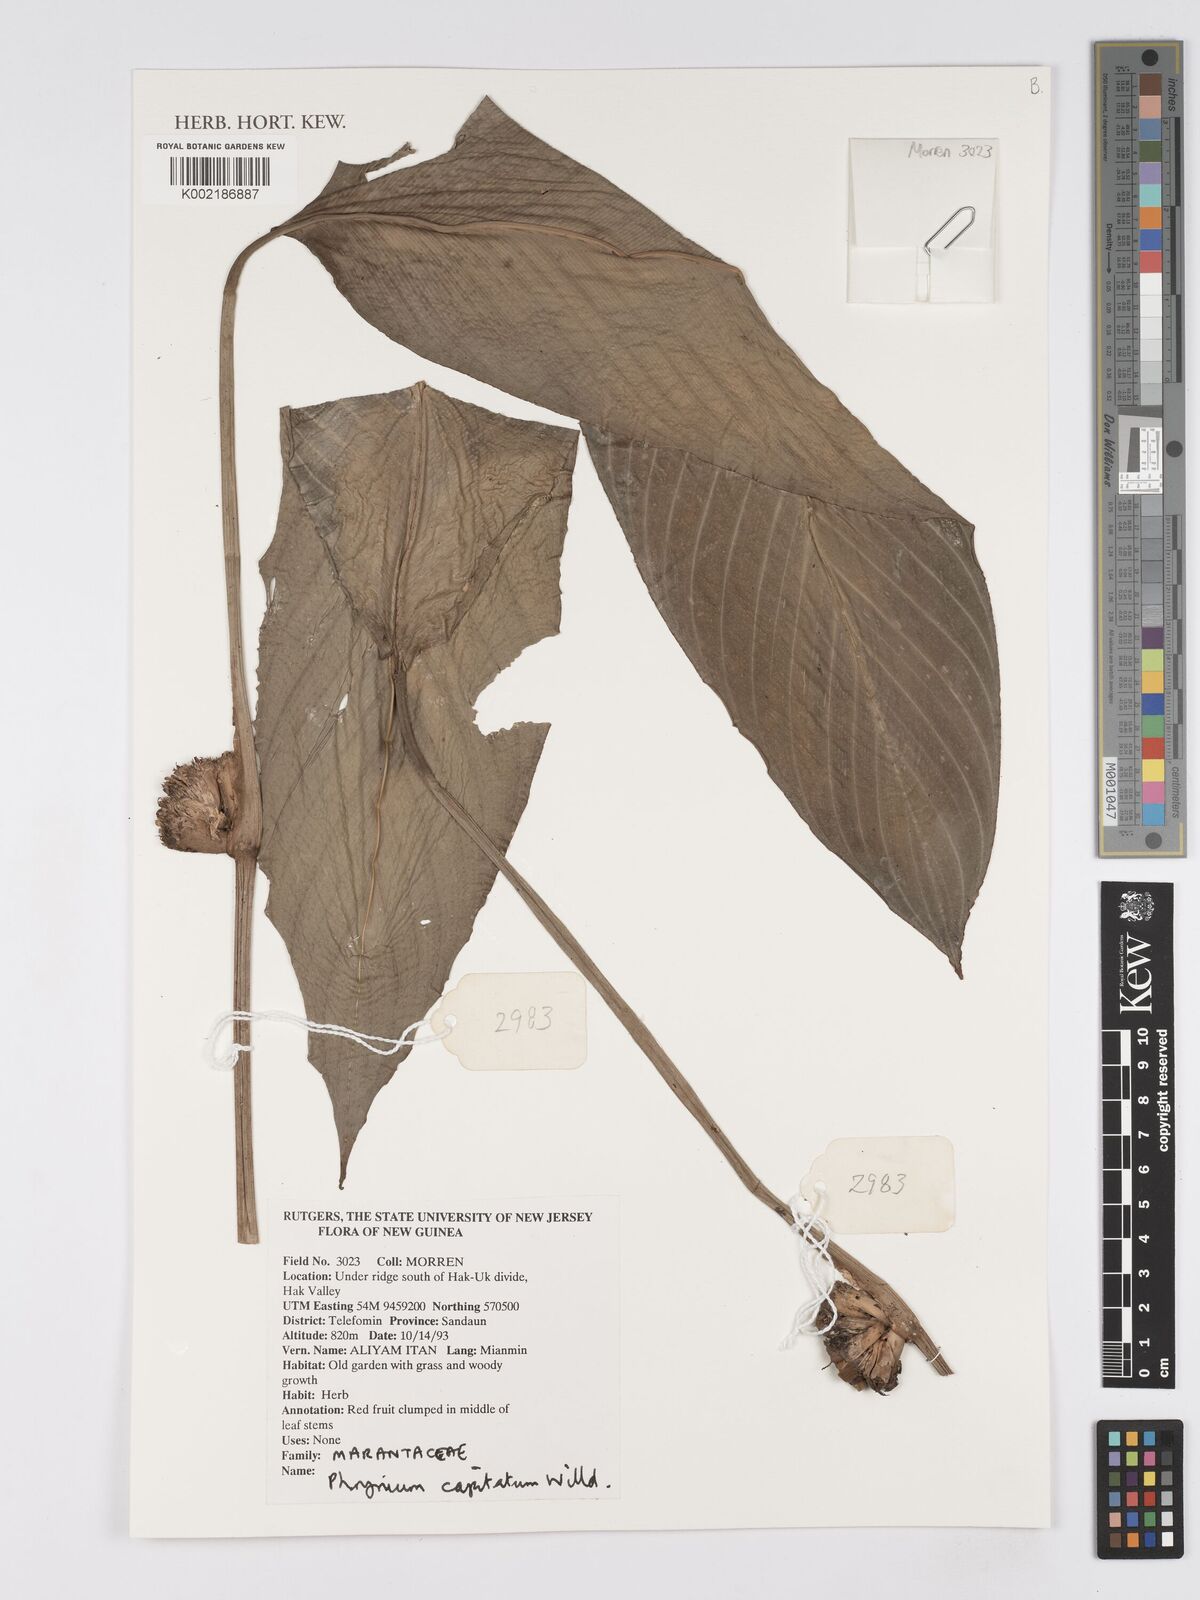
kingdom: Plantae
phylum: Tracheophyta
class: Liliopsida
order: Zingiberales
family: Marantaceae
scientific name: Marantaceae
